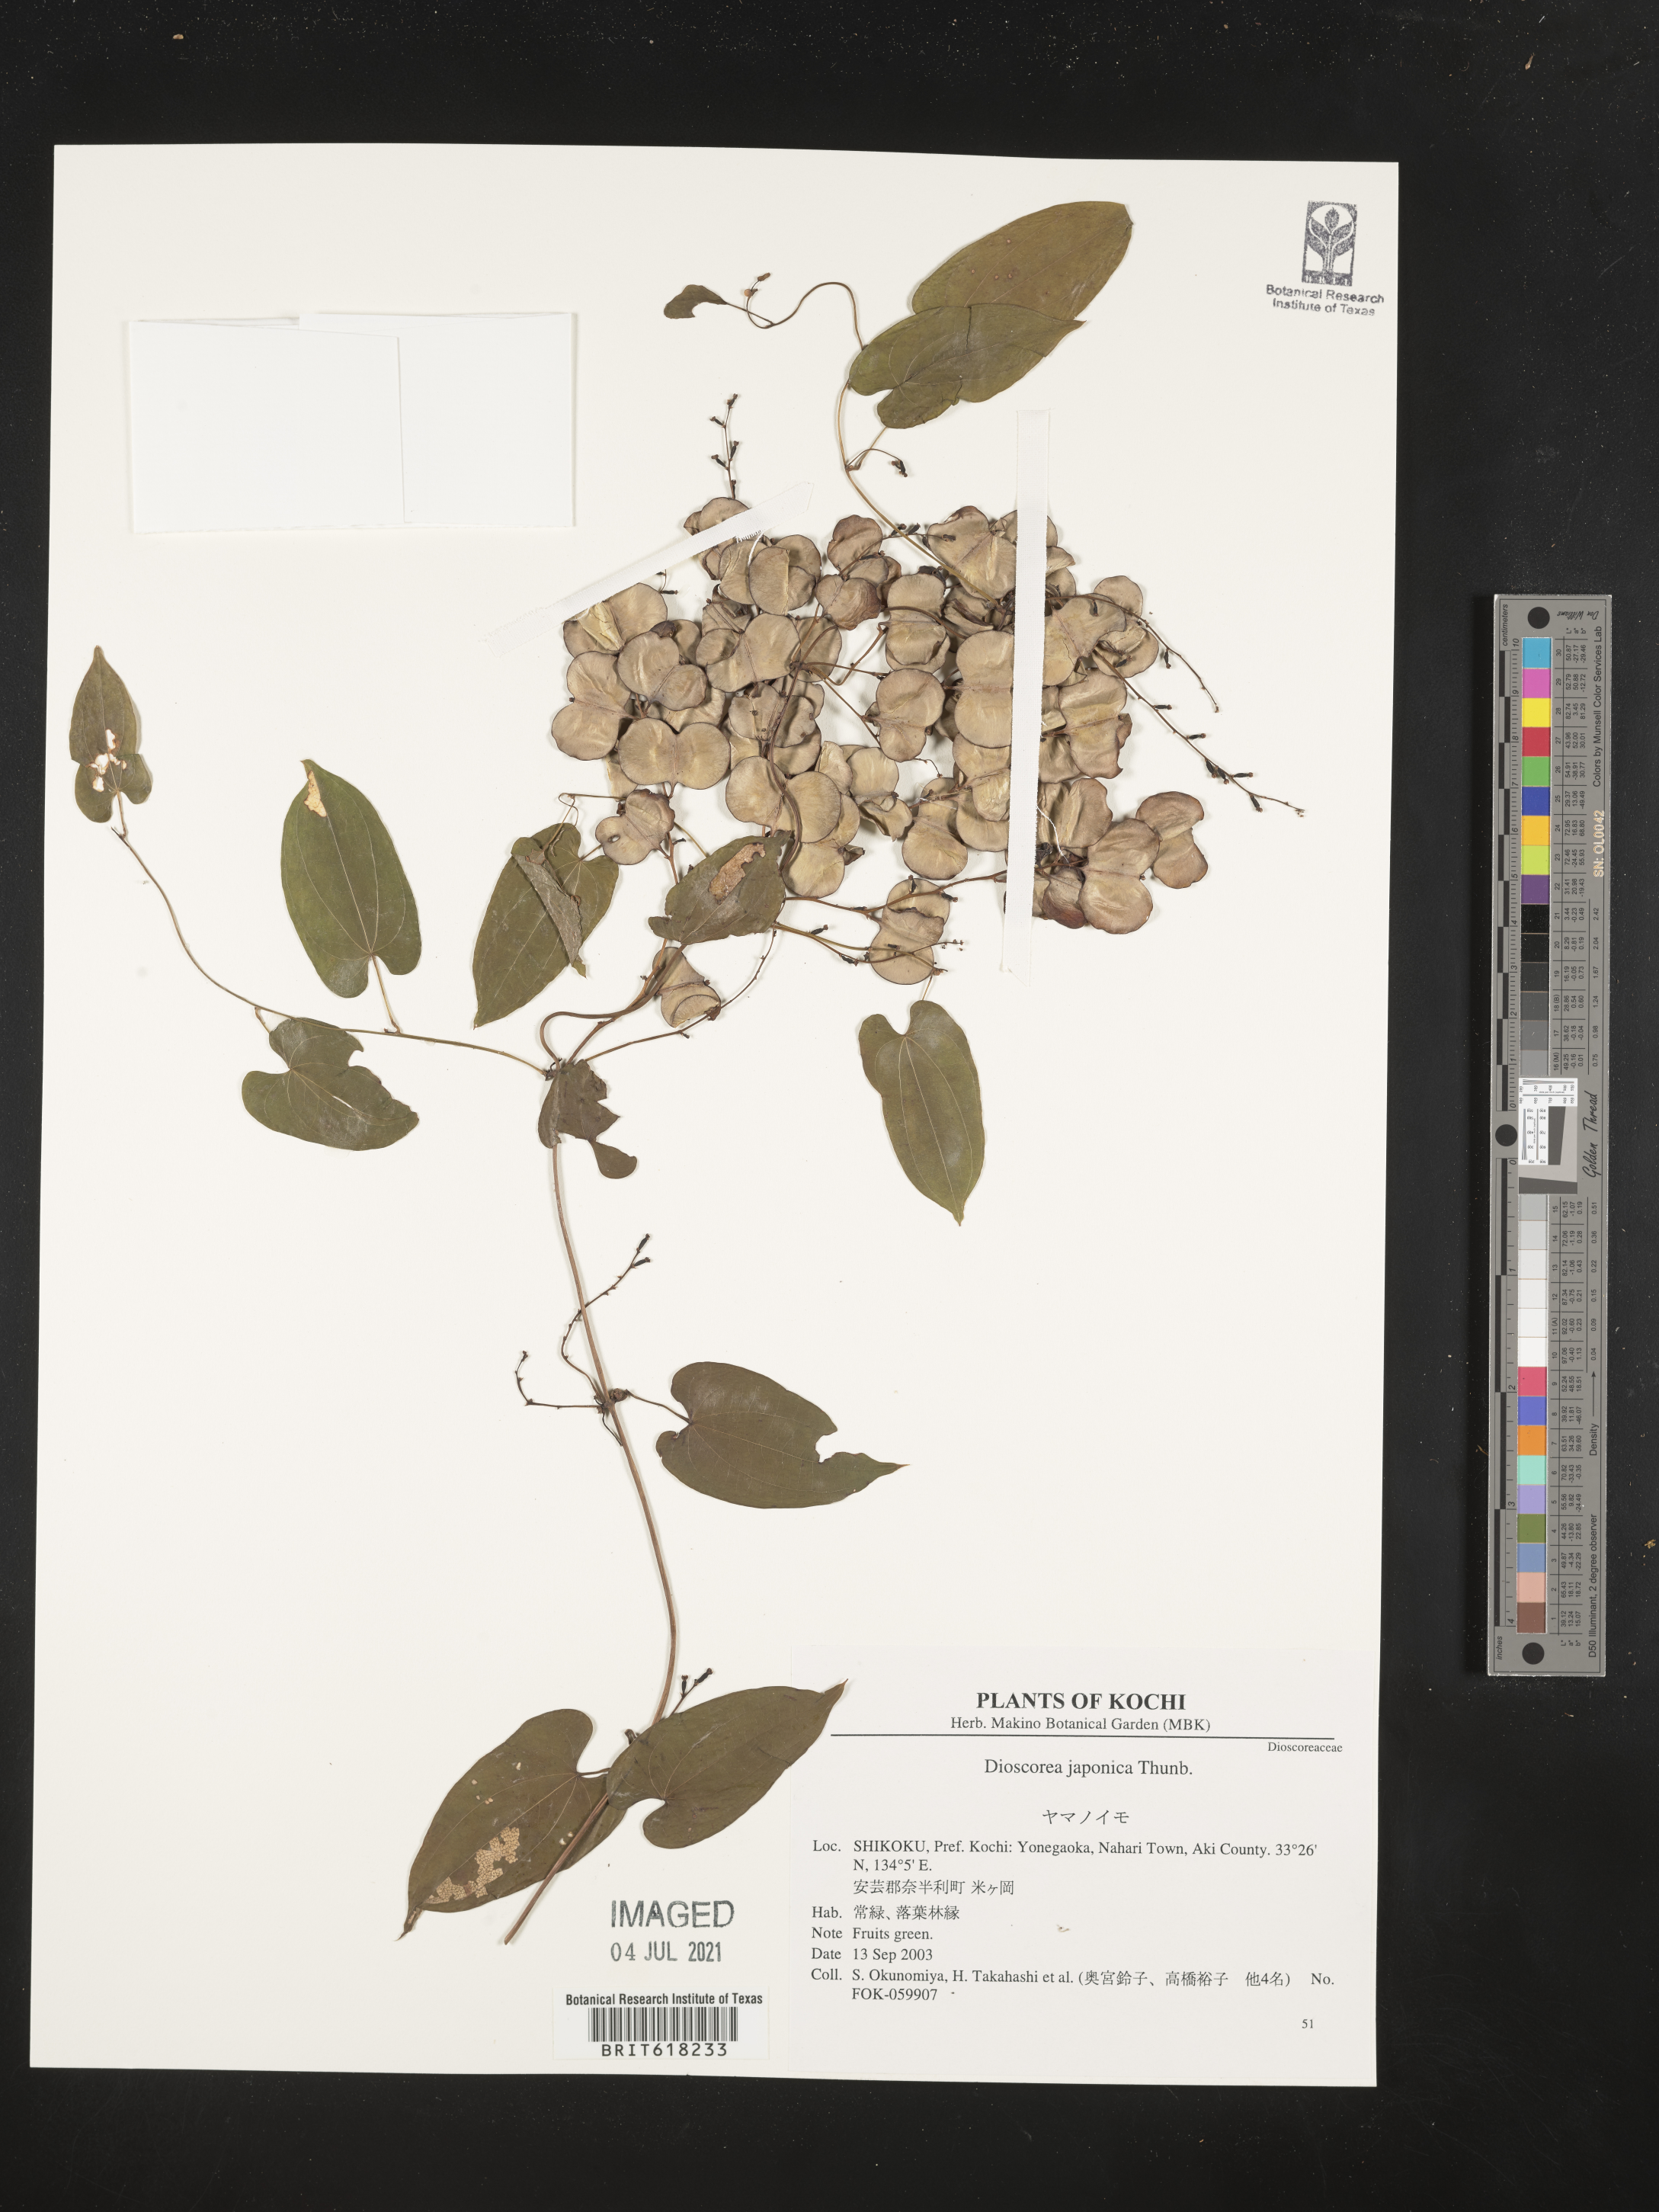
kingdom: Plantae
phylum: Tracheophyta
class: Liliopsida
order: Dioscoreales
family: Dioscoreaceae
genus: Dioscorea
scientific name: Dioscorea japonica
